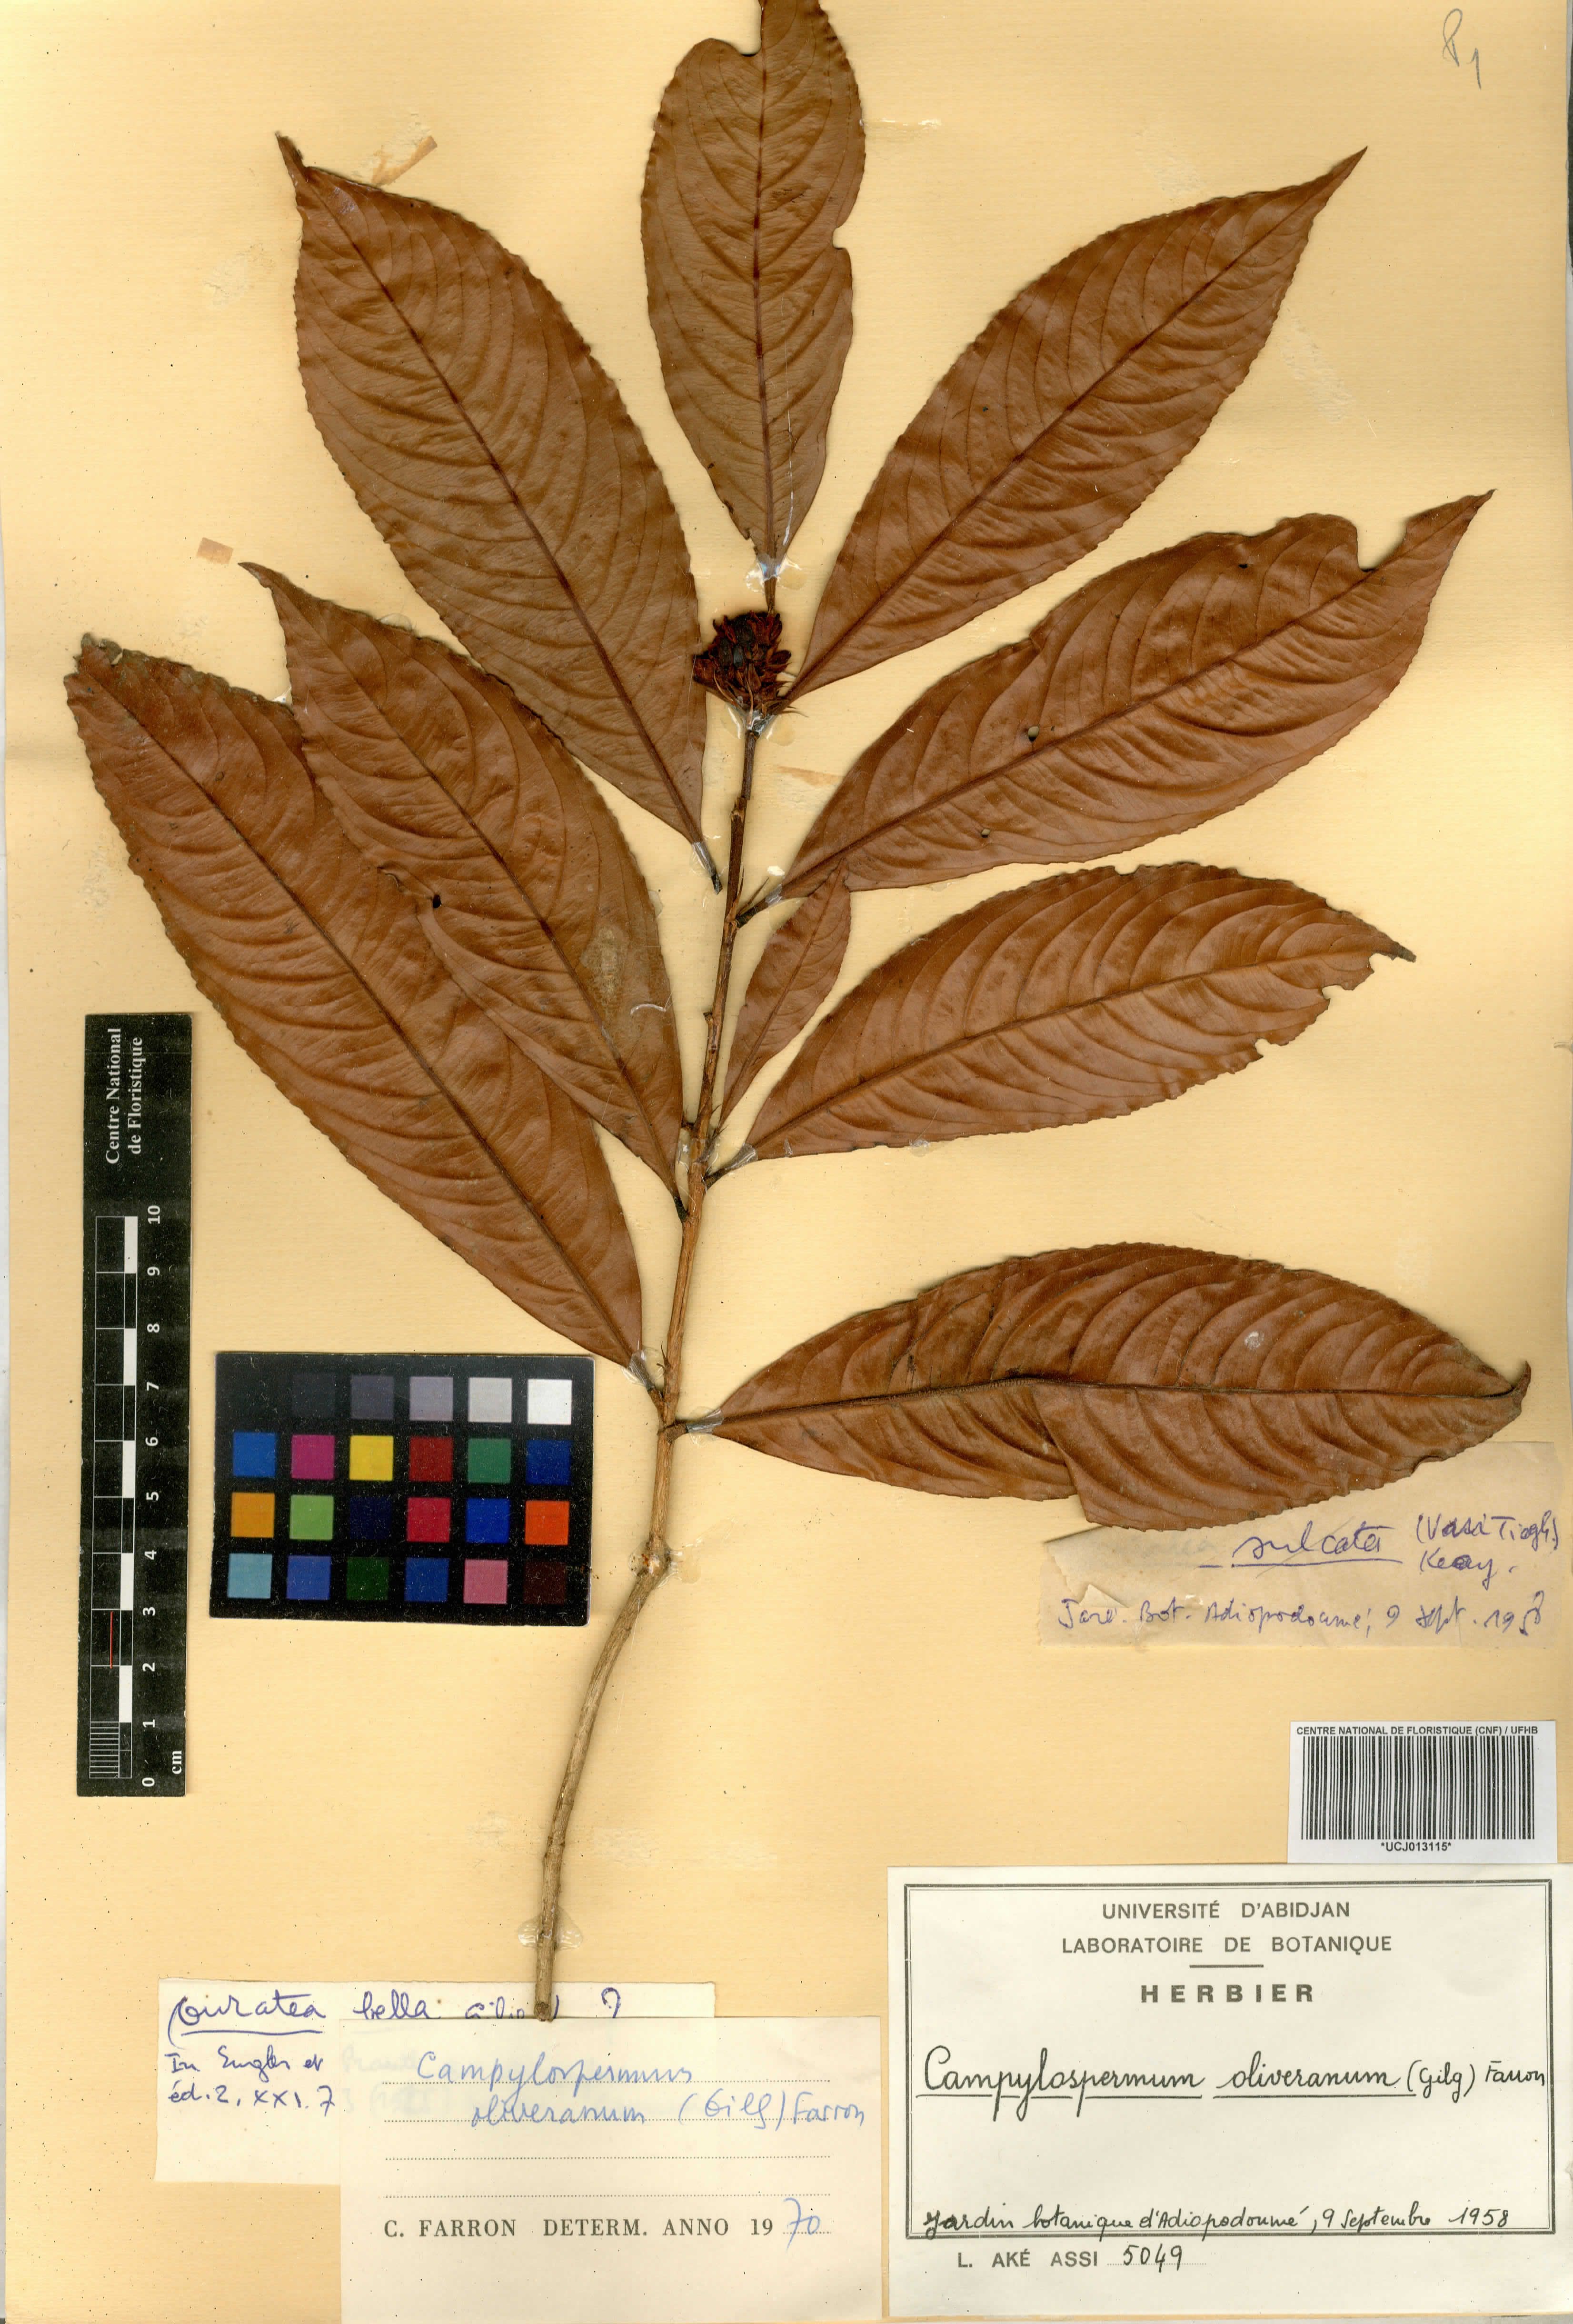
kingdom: Plantae
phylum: Tracheophyta
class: Magnoliopsida
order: Malpighiales
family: Ochnaceae
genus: Campylospermum
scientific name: Campylospermum oliverianum
